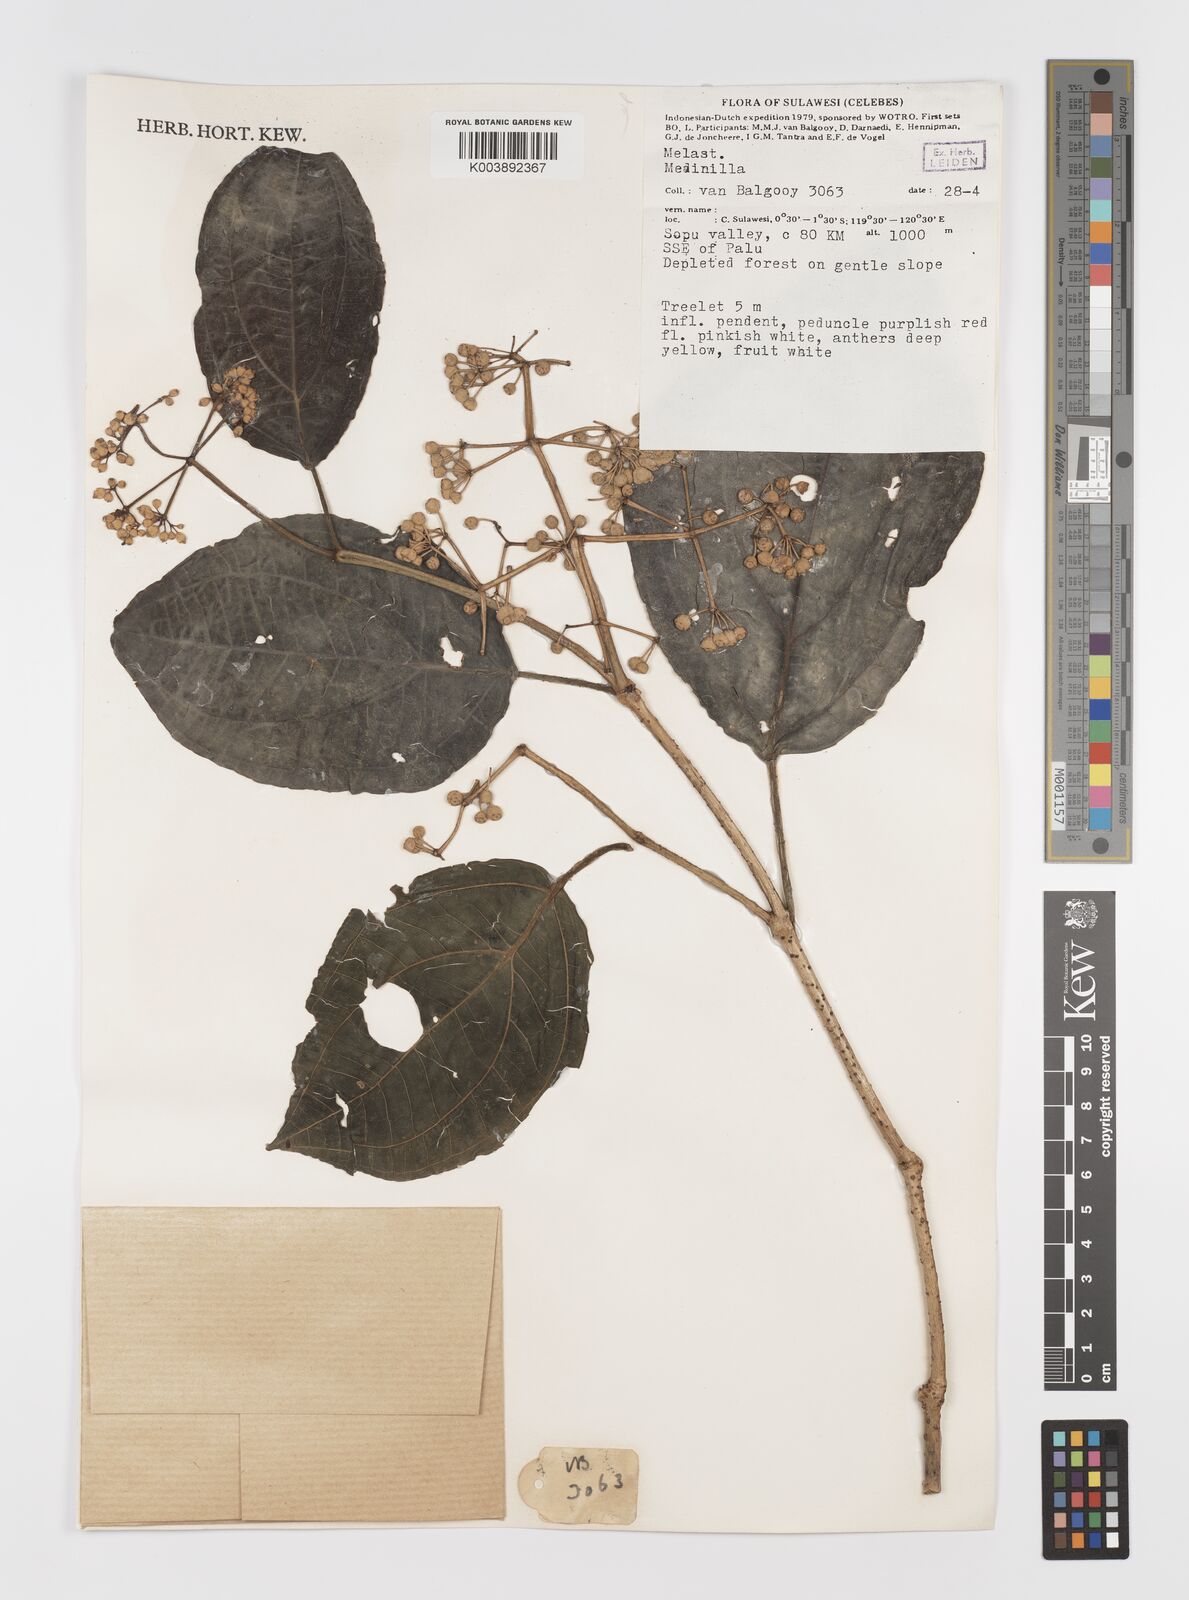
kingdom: Plantae
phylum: Tracheophyta
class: Magnoliopsida
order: Myrtales
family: Melastomataceae
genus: Medinilla
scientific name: Medinilla
